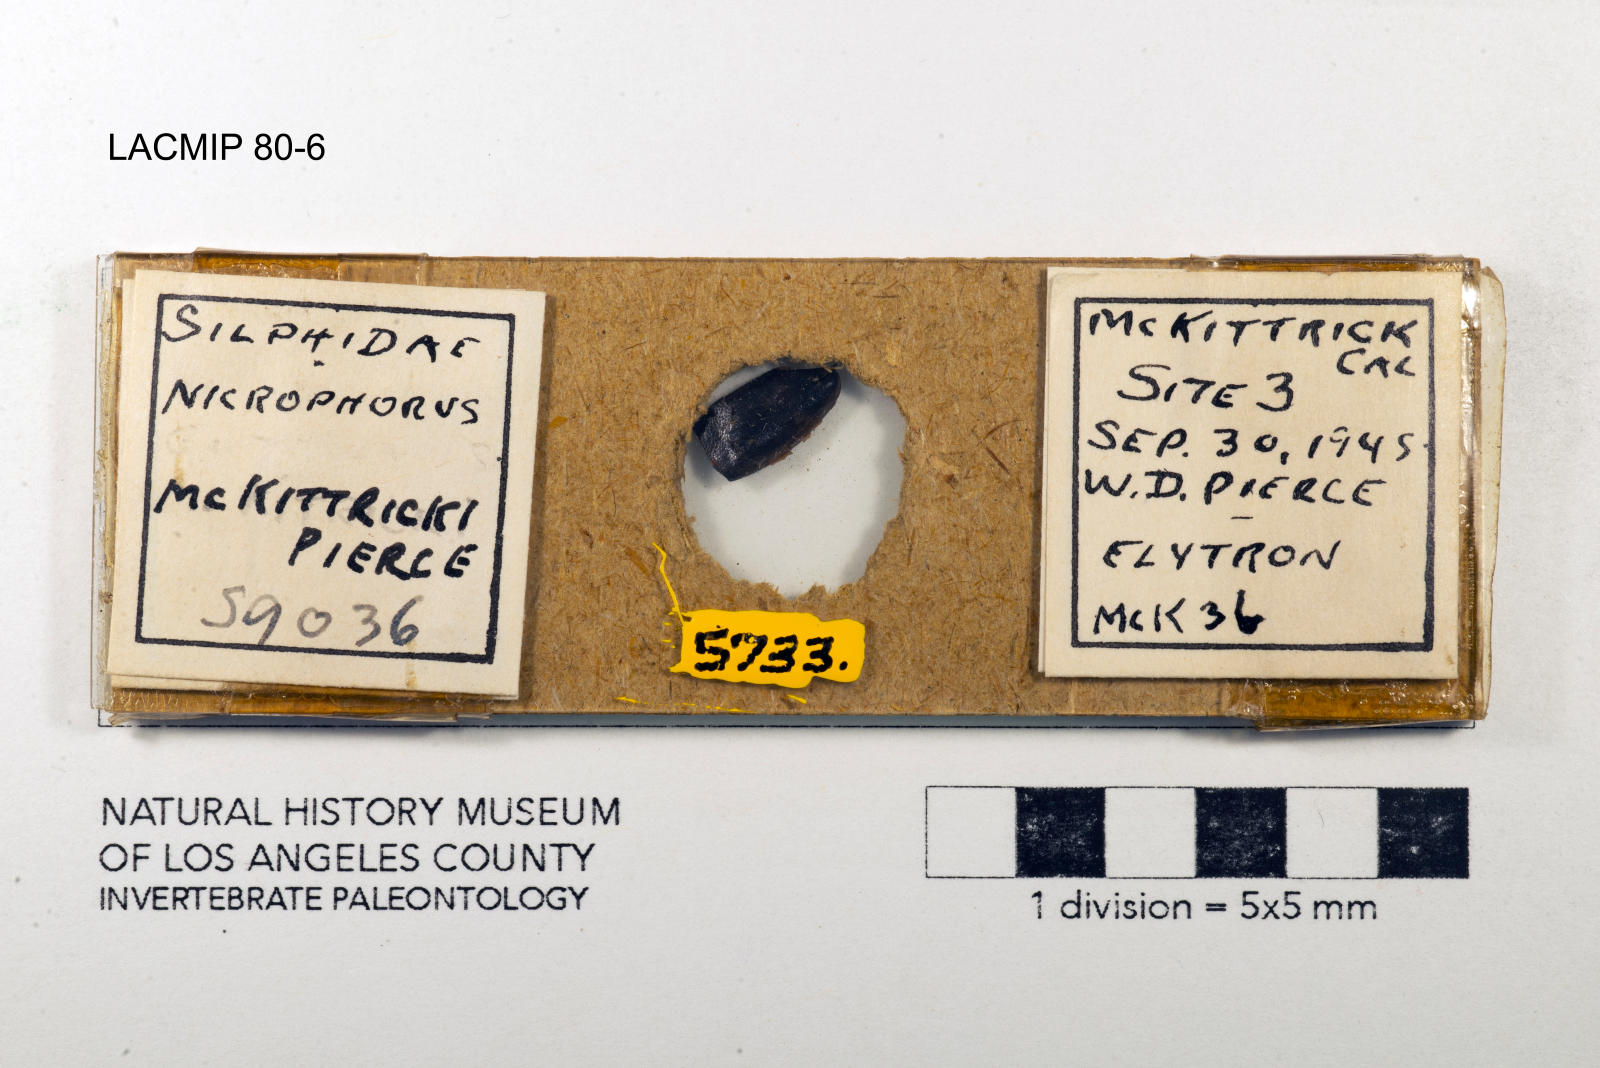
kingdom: Animalia
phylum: Arthropoda
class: Insecta
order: Coleoptera
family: Staphylinidae
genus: Nicrophorus
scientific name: Nicrophorus marginatus
